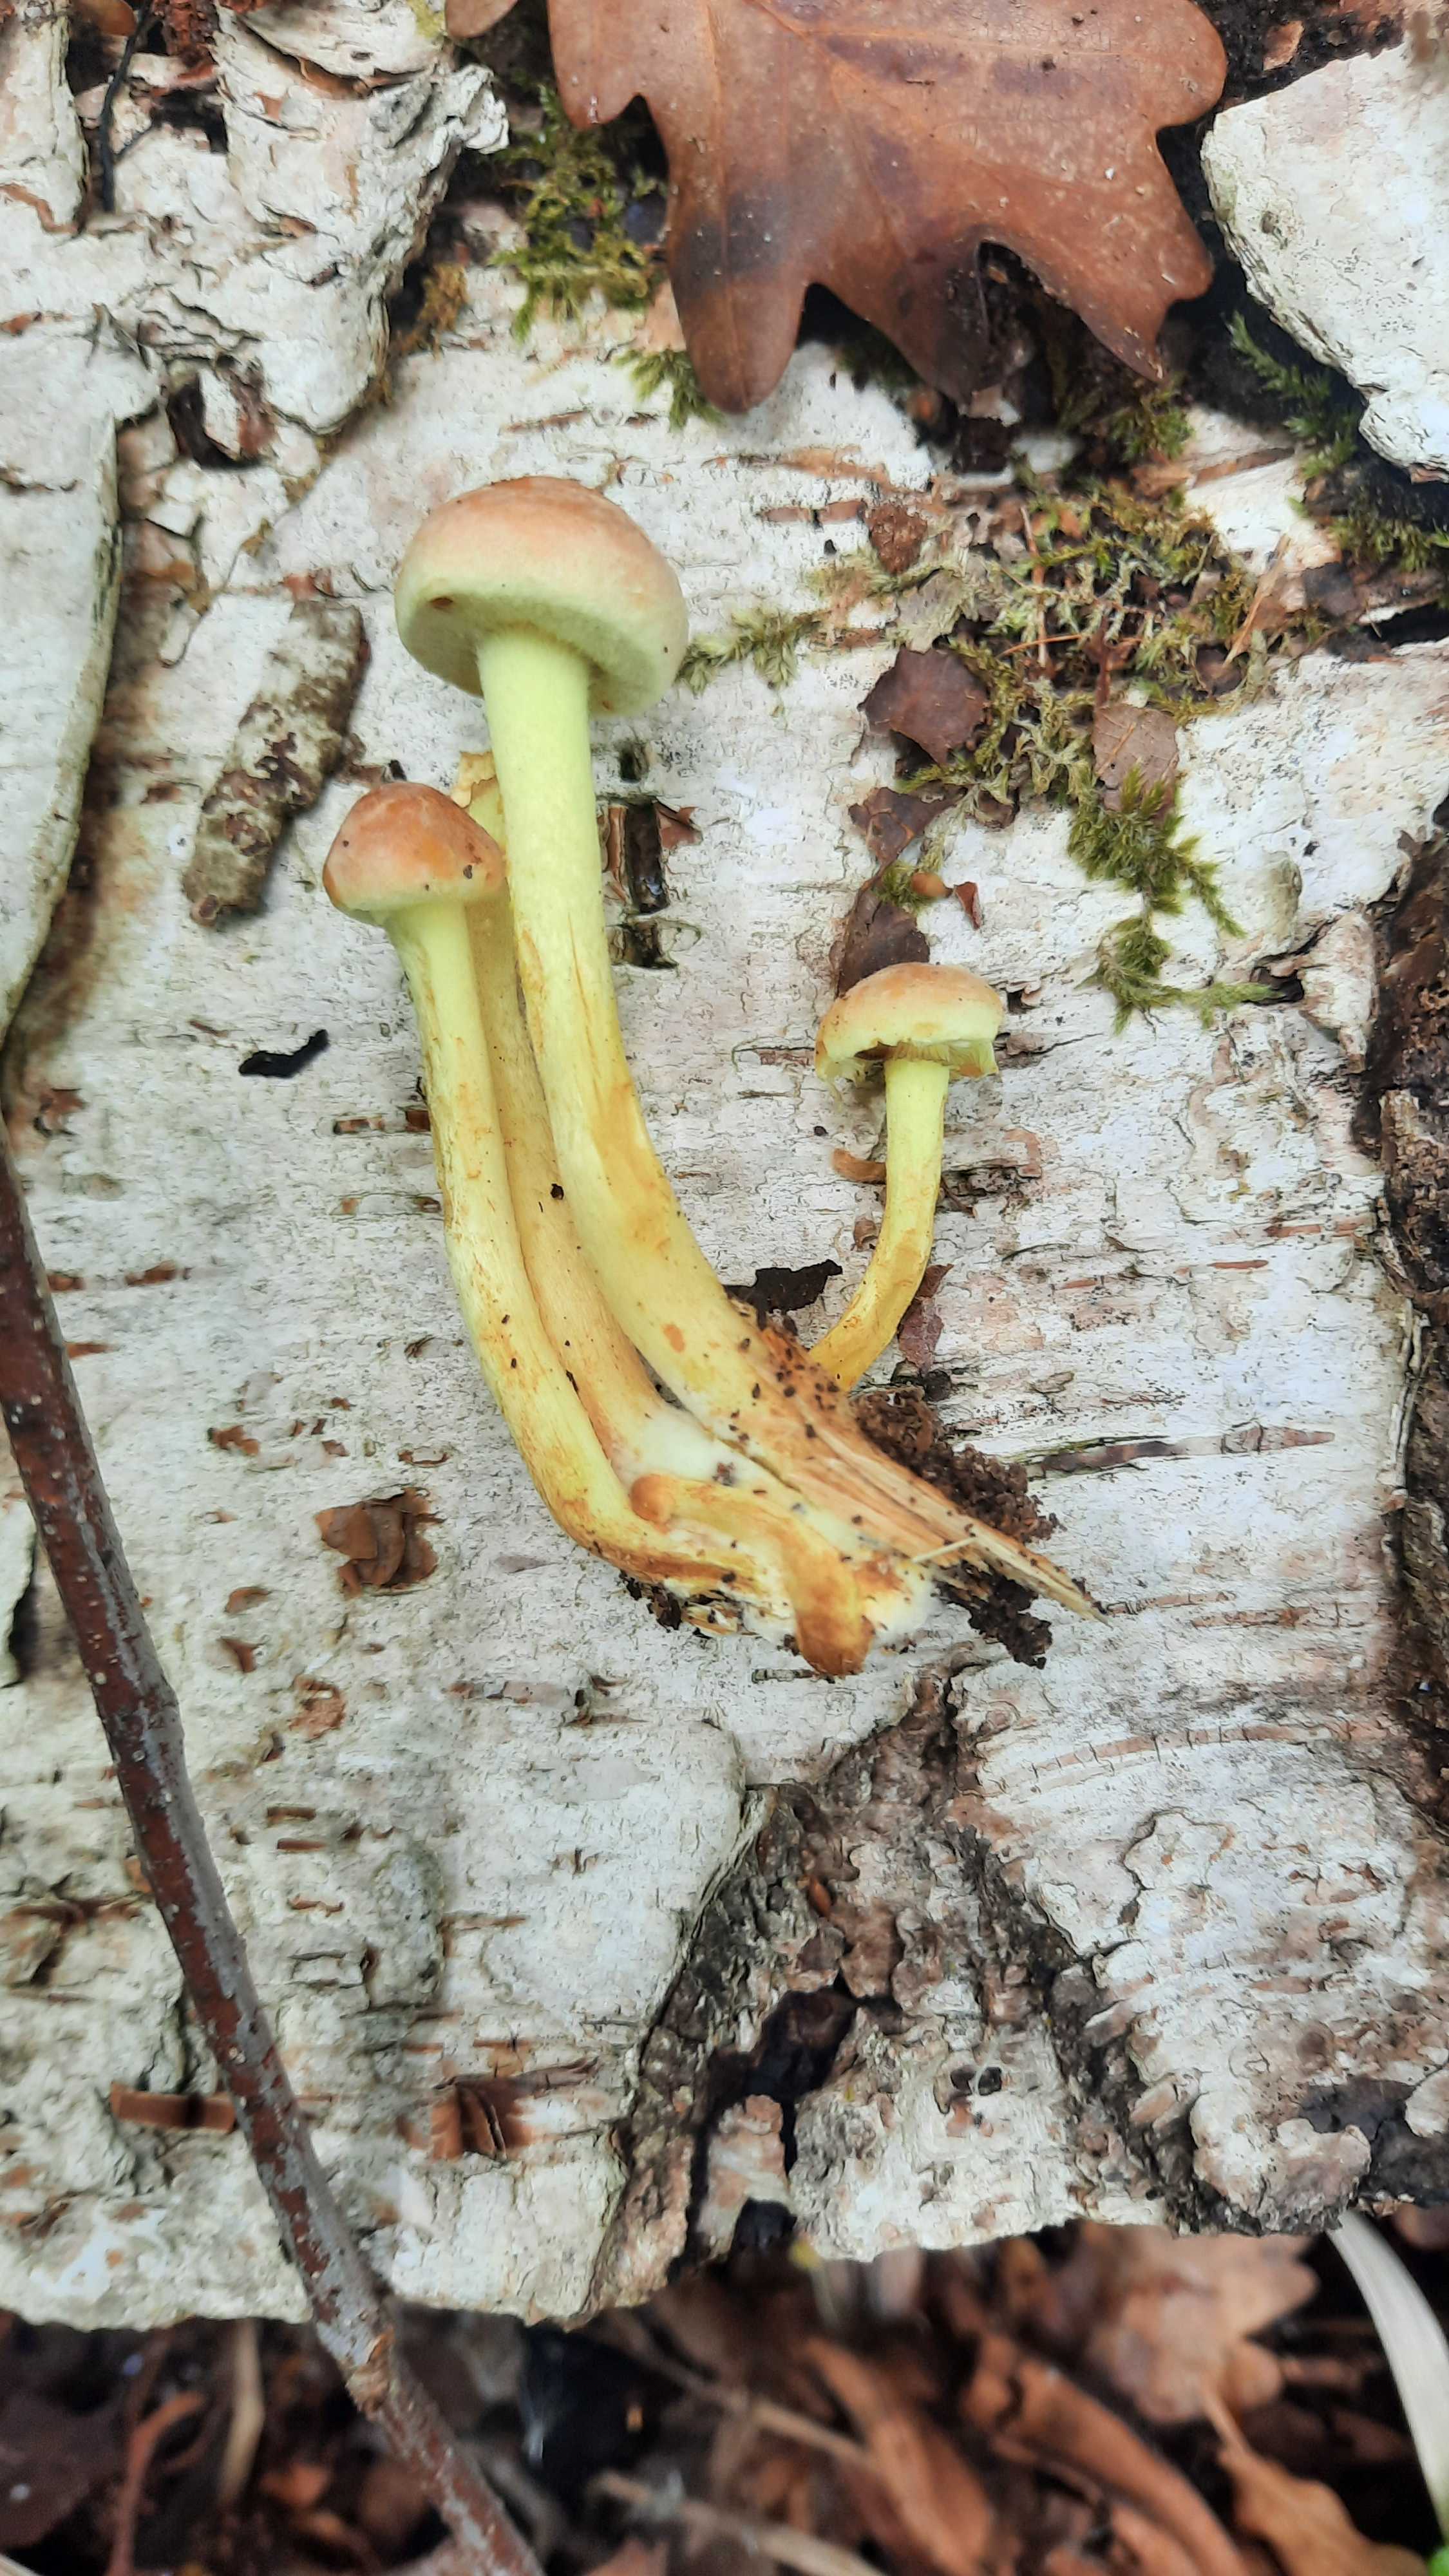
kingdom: Fungi
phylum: Basidiomycota
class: Agaricomycetes
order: Agaricales
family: Strophariaceae
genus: Hypholoma
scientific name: Hypholoma fasciculare
